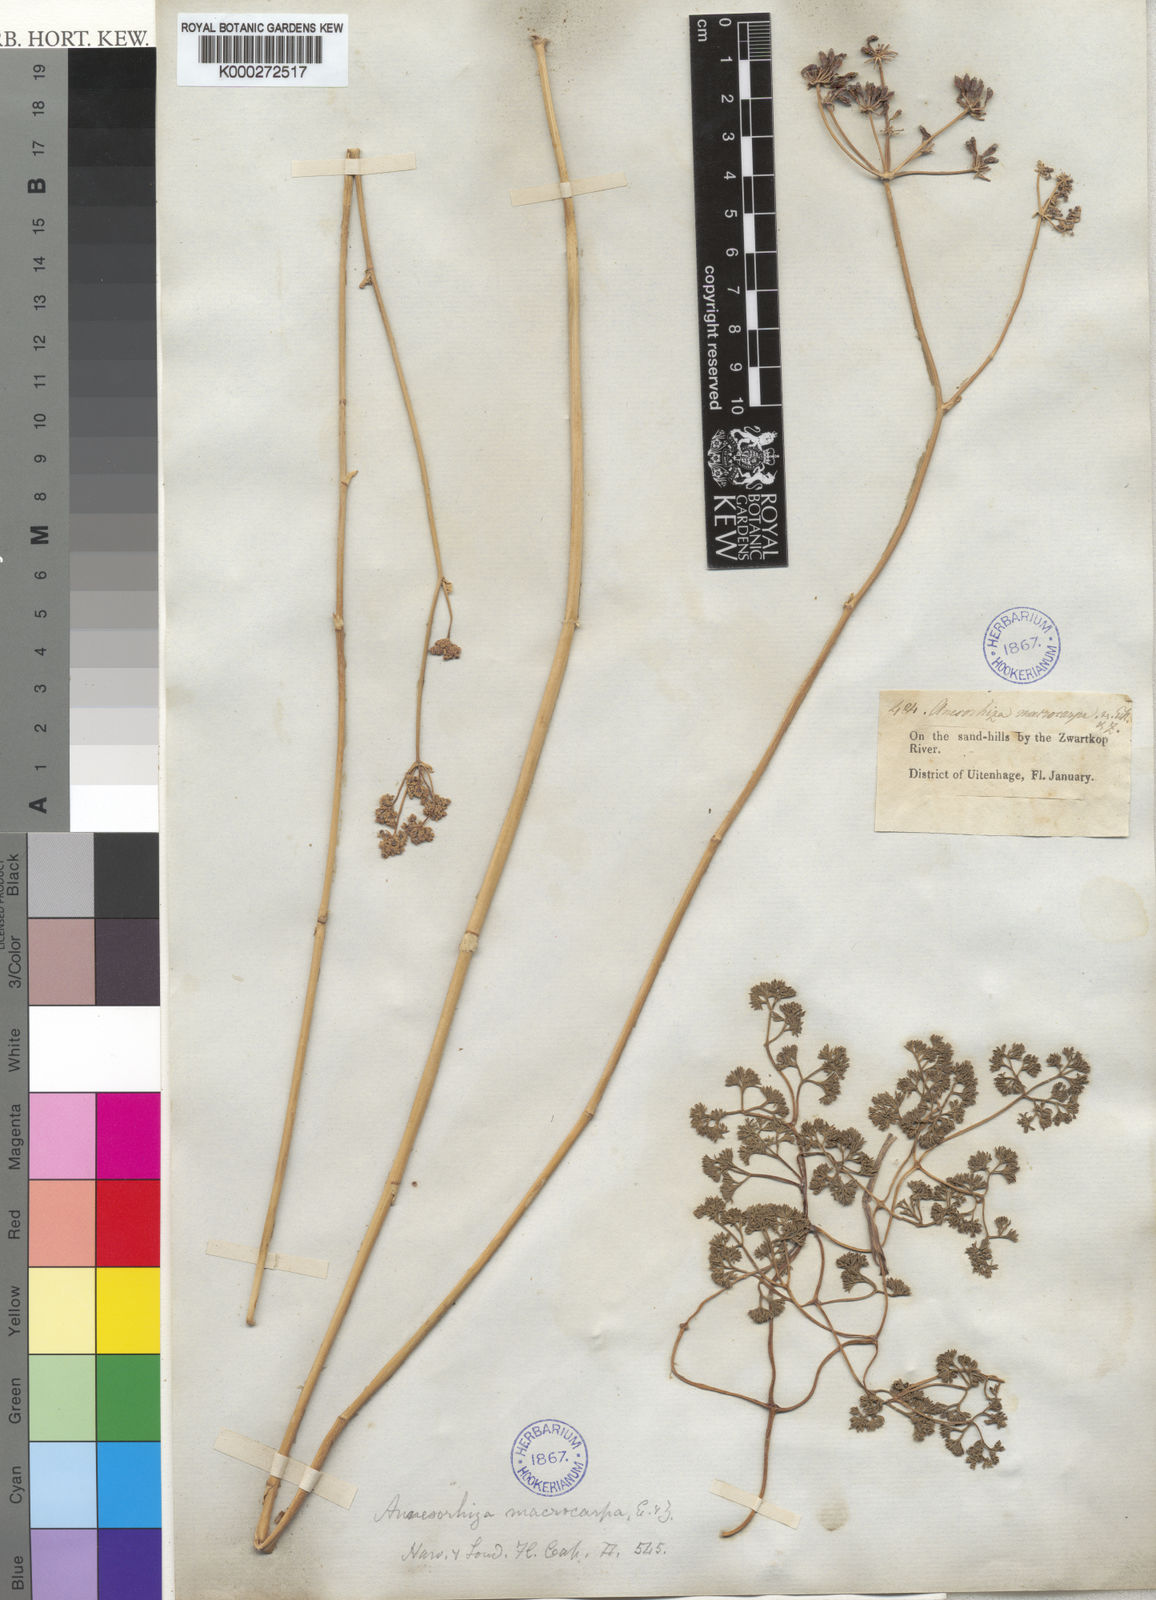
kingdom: Plantae
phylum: Tracheophyta
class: Magnoliopsida
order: Apiales
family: Apiaceae
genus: Annesorhiza
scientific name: Annesorhiza macrocarpa
